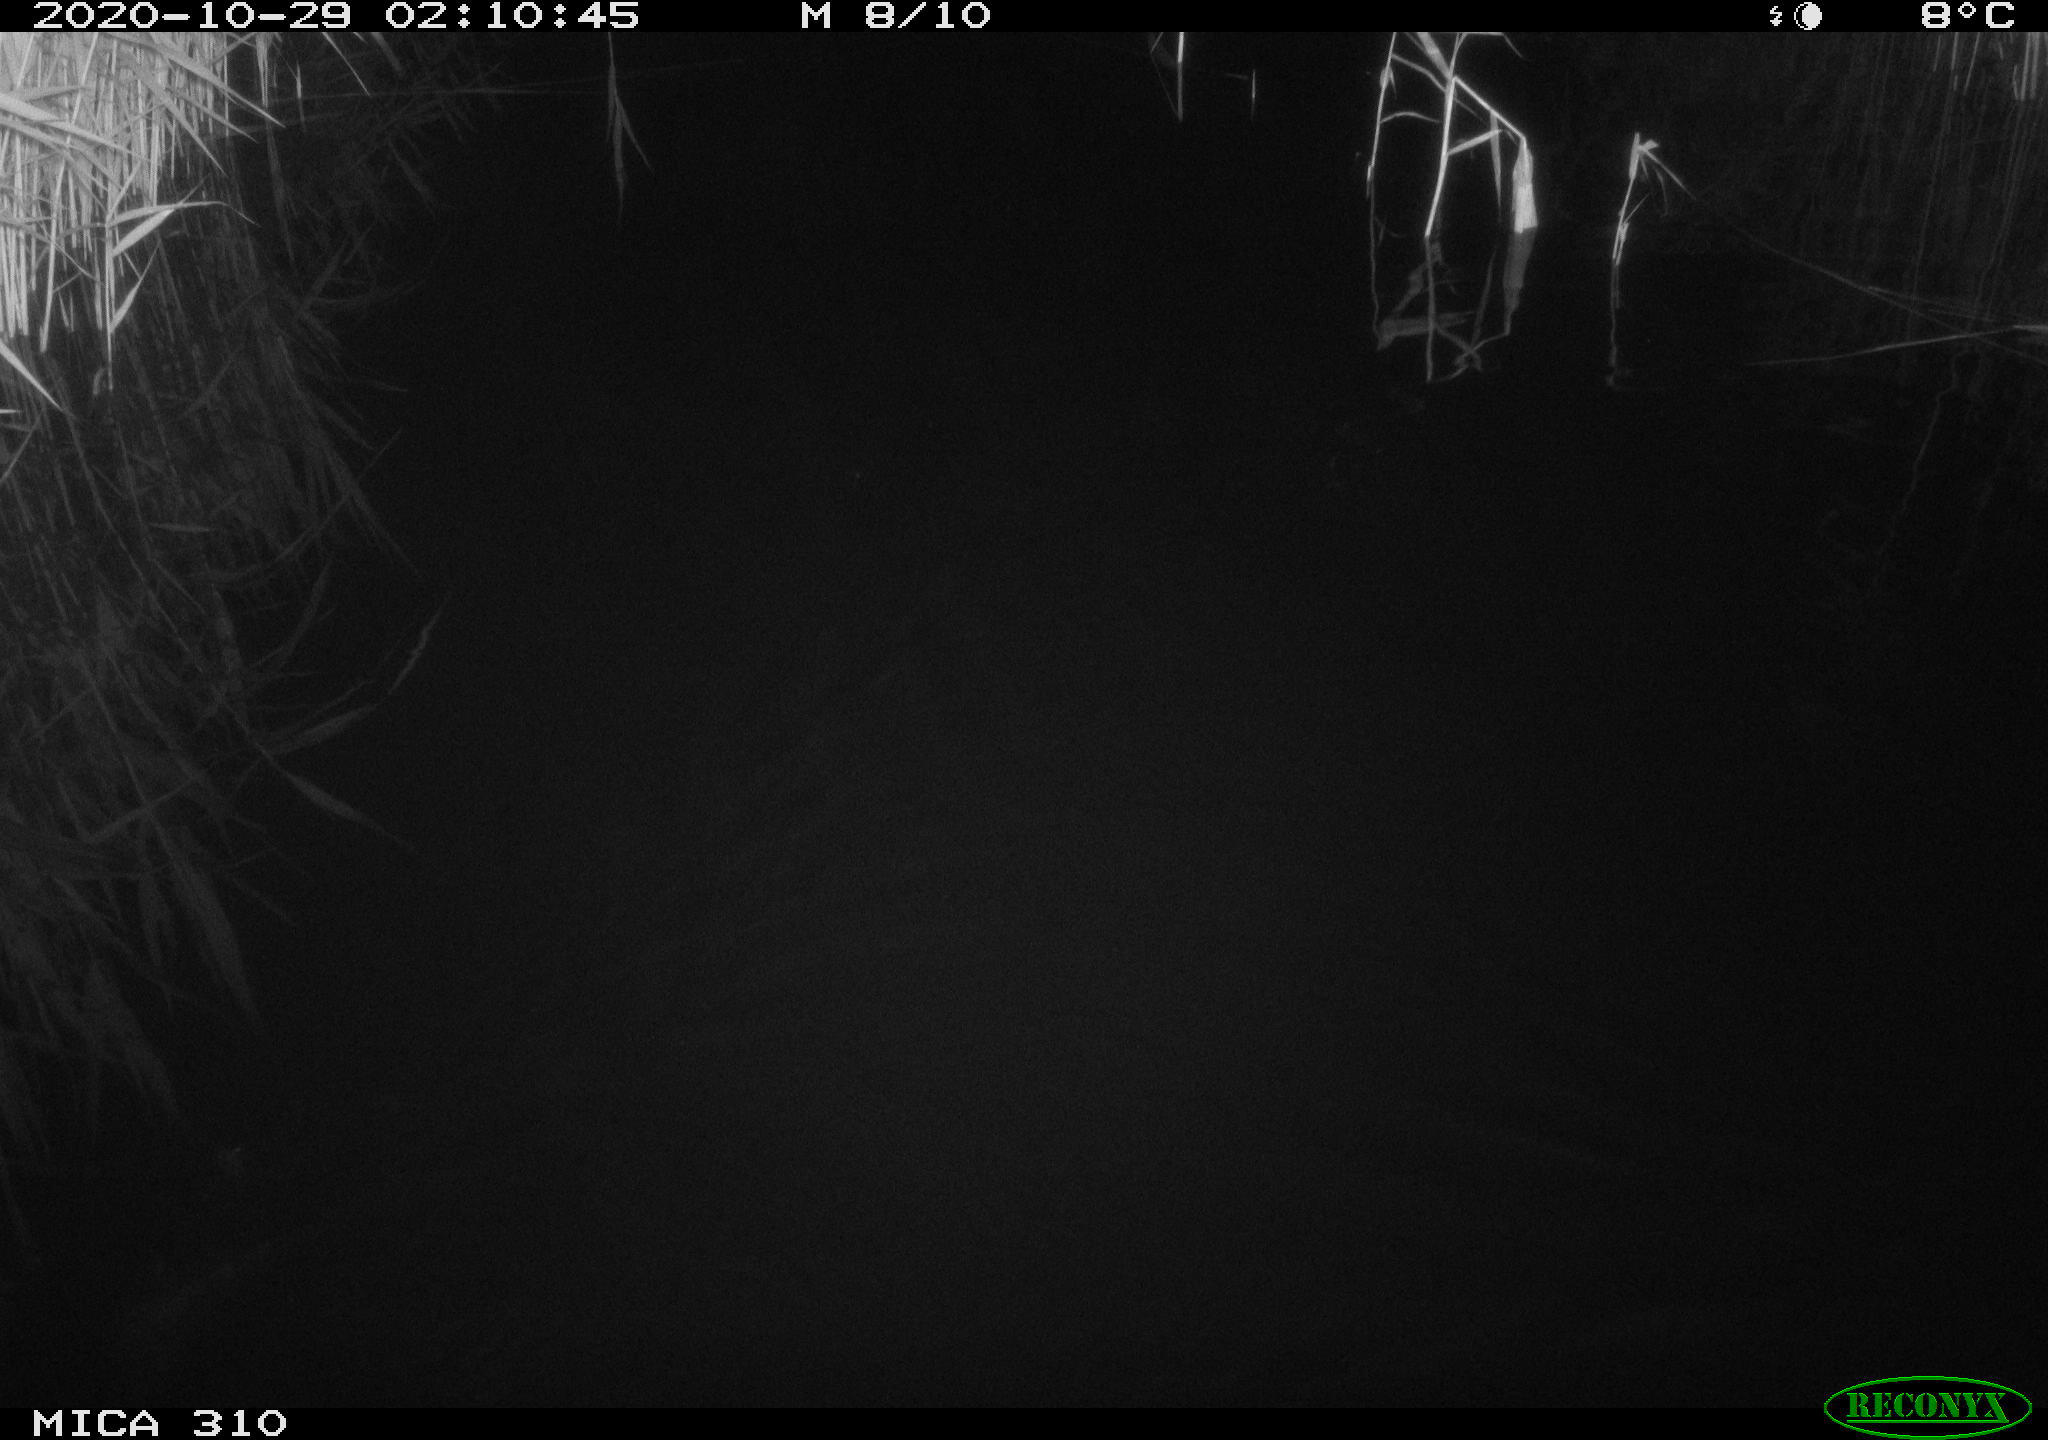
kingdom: Animalia
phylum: Chordata
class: Mammalia
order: Rodentia
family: Muridae
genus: Rattus
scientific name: Rattus norvegicus
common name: Brown rat
